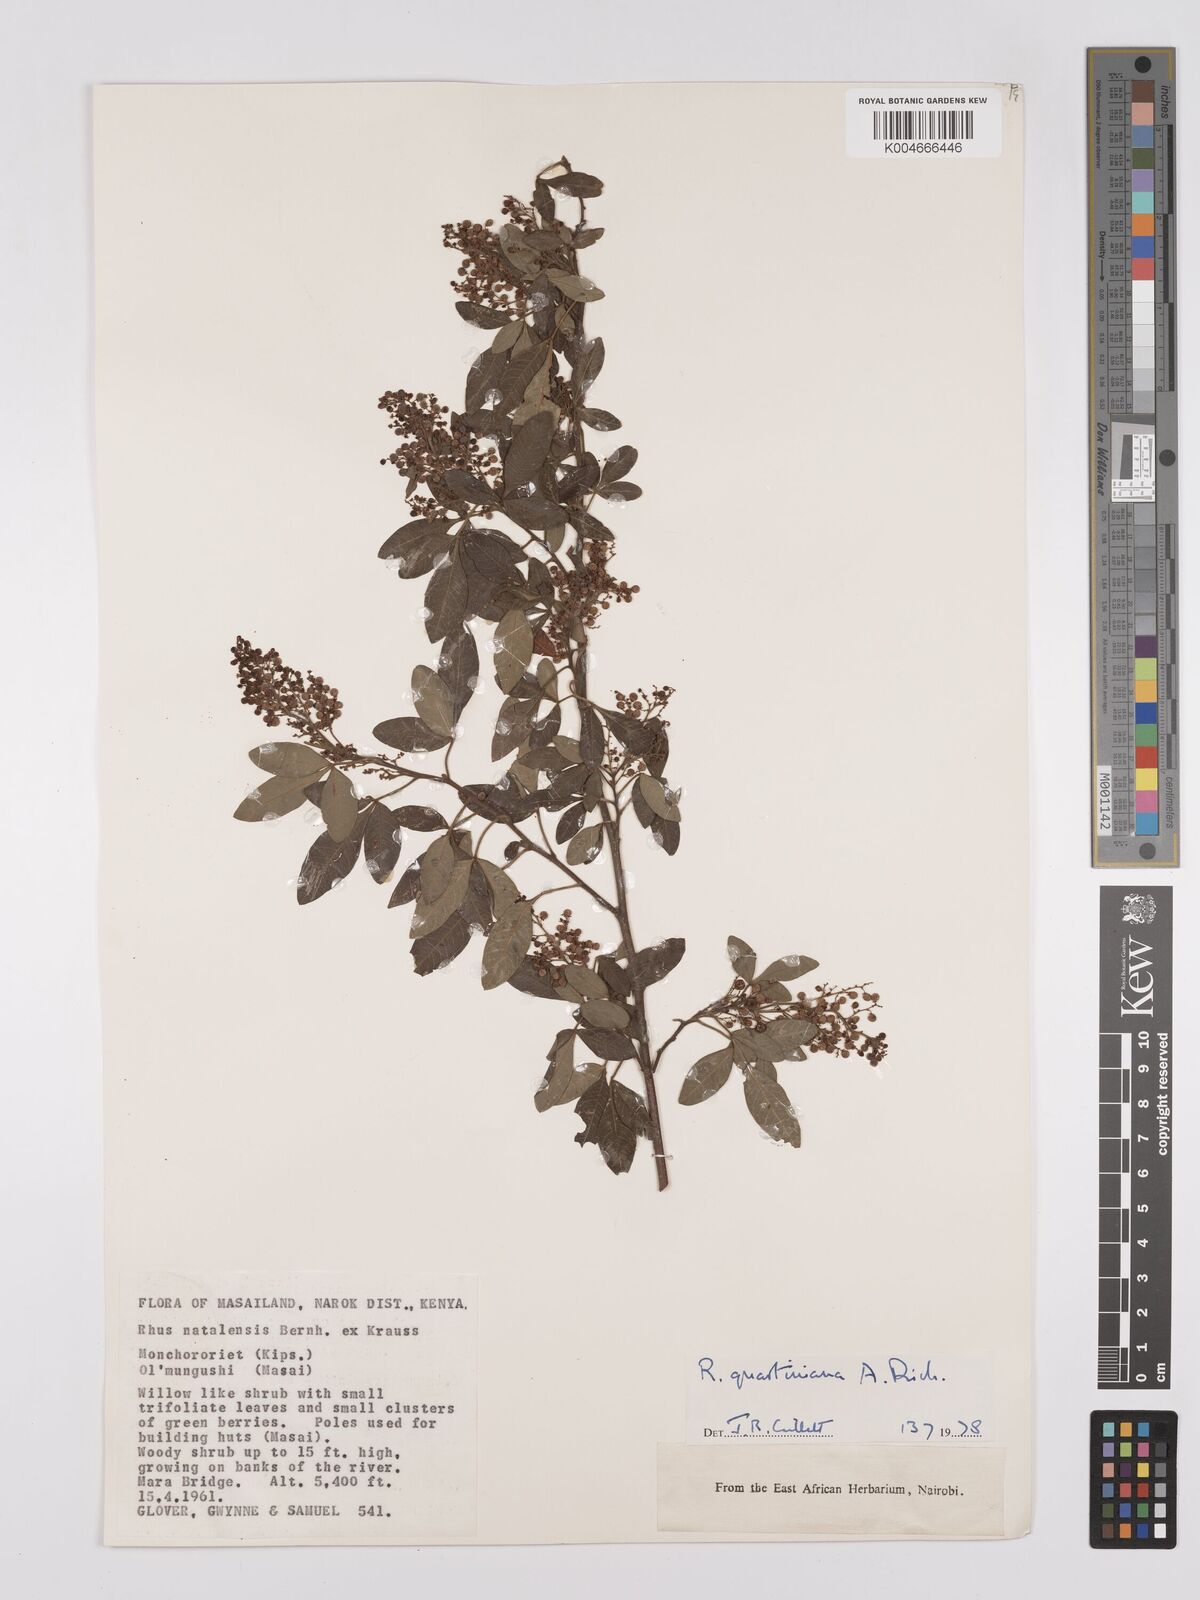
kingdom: Plantae
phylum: Tracheophyta
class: Magnoliopsida
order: Sapindales
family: Anacardiaceae
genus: Searsia
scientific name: Searsia quartiniana
